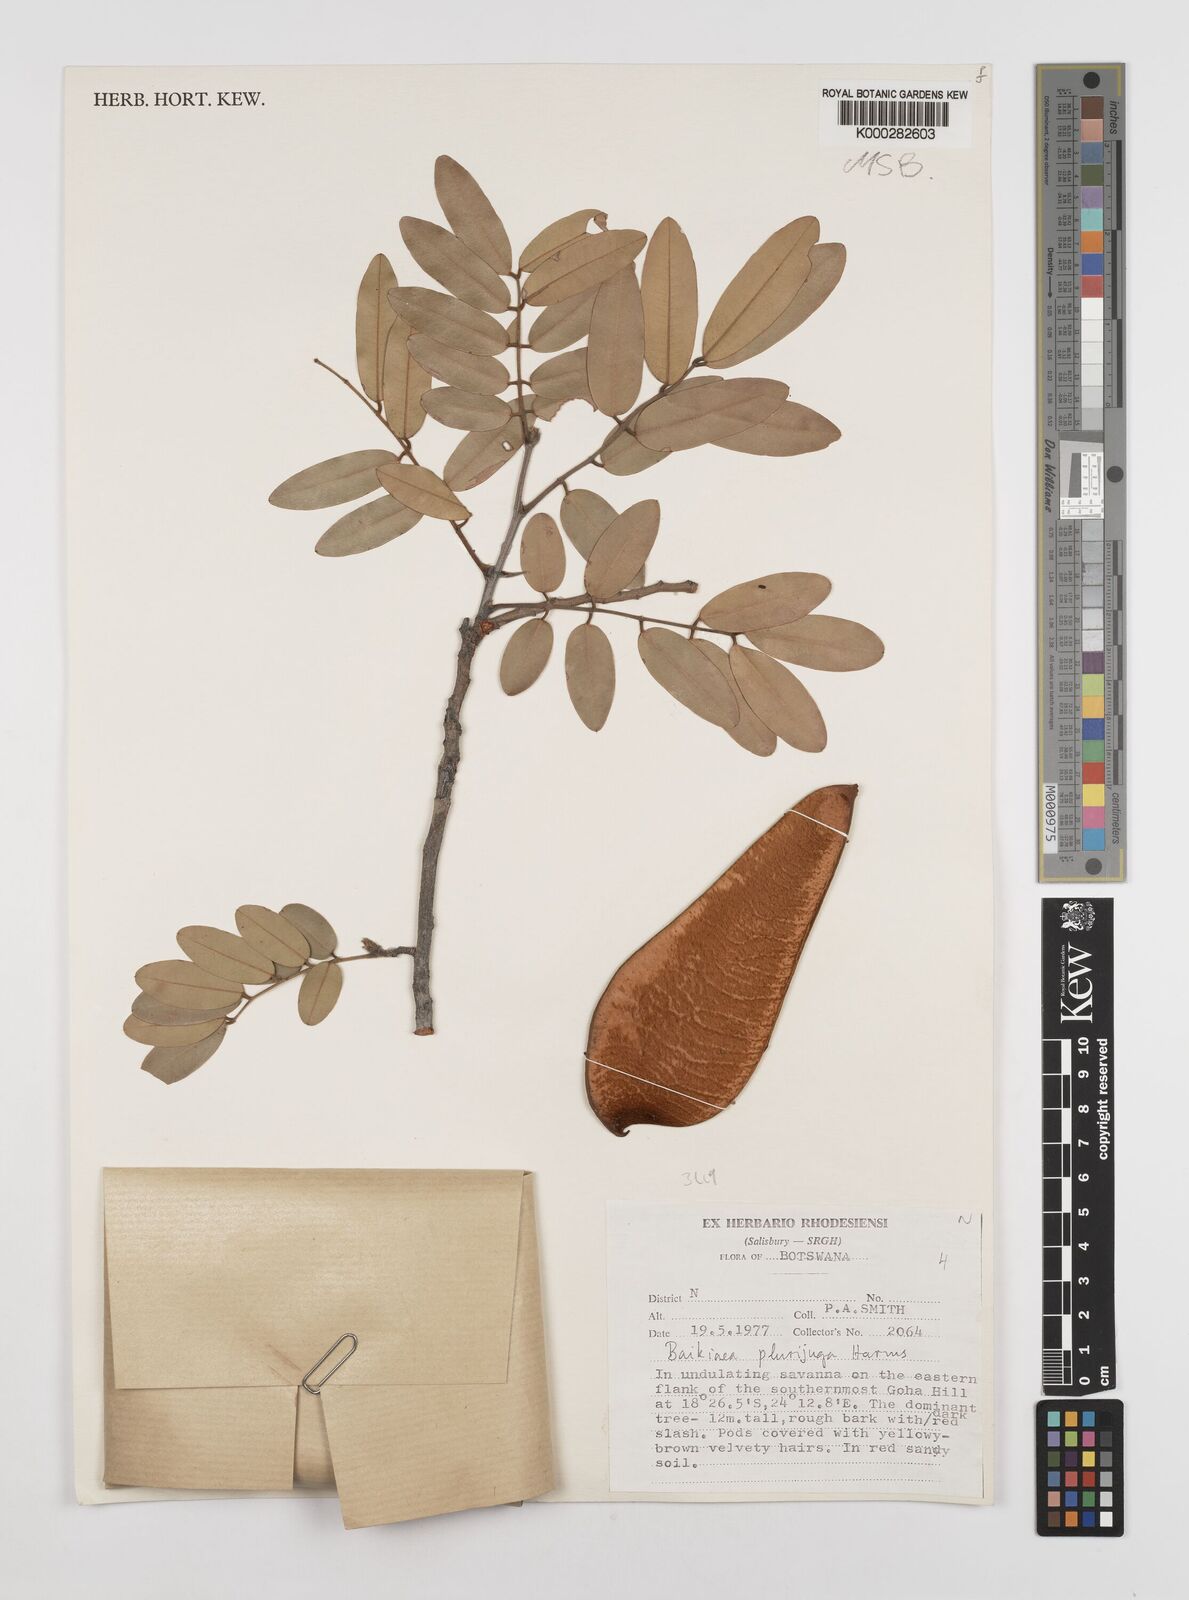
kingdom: Plantae
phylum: Tracheophyta
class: Magnoliopsida
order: Fabales
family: Fabaceae
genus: Baikiaea
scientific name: Baikiaea plurijuga
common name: Rhodesian-teak
